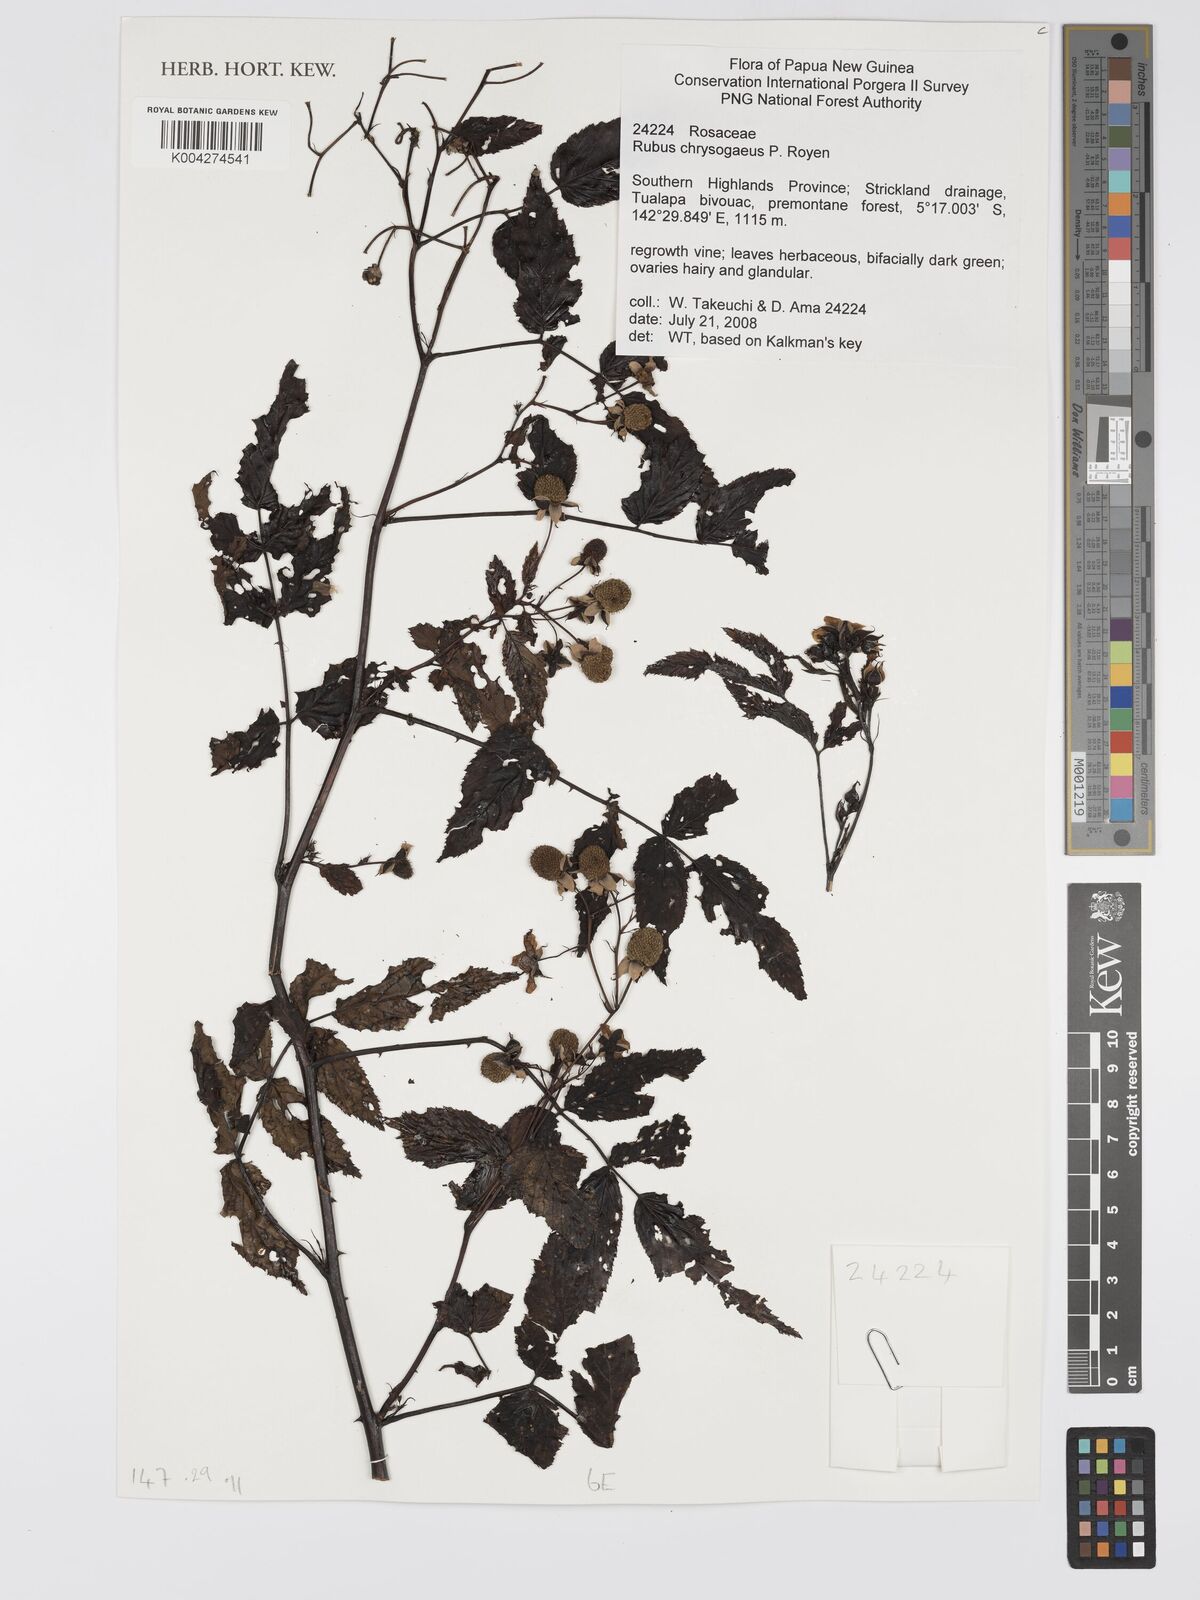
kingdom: Plantae
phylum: Tracheophyta
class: Magnoliopsida
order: Rosales
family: Rosaceae
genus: Rubus
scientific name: Rubus chrysogaeus
